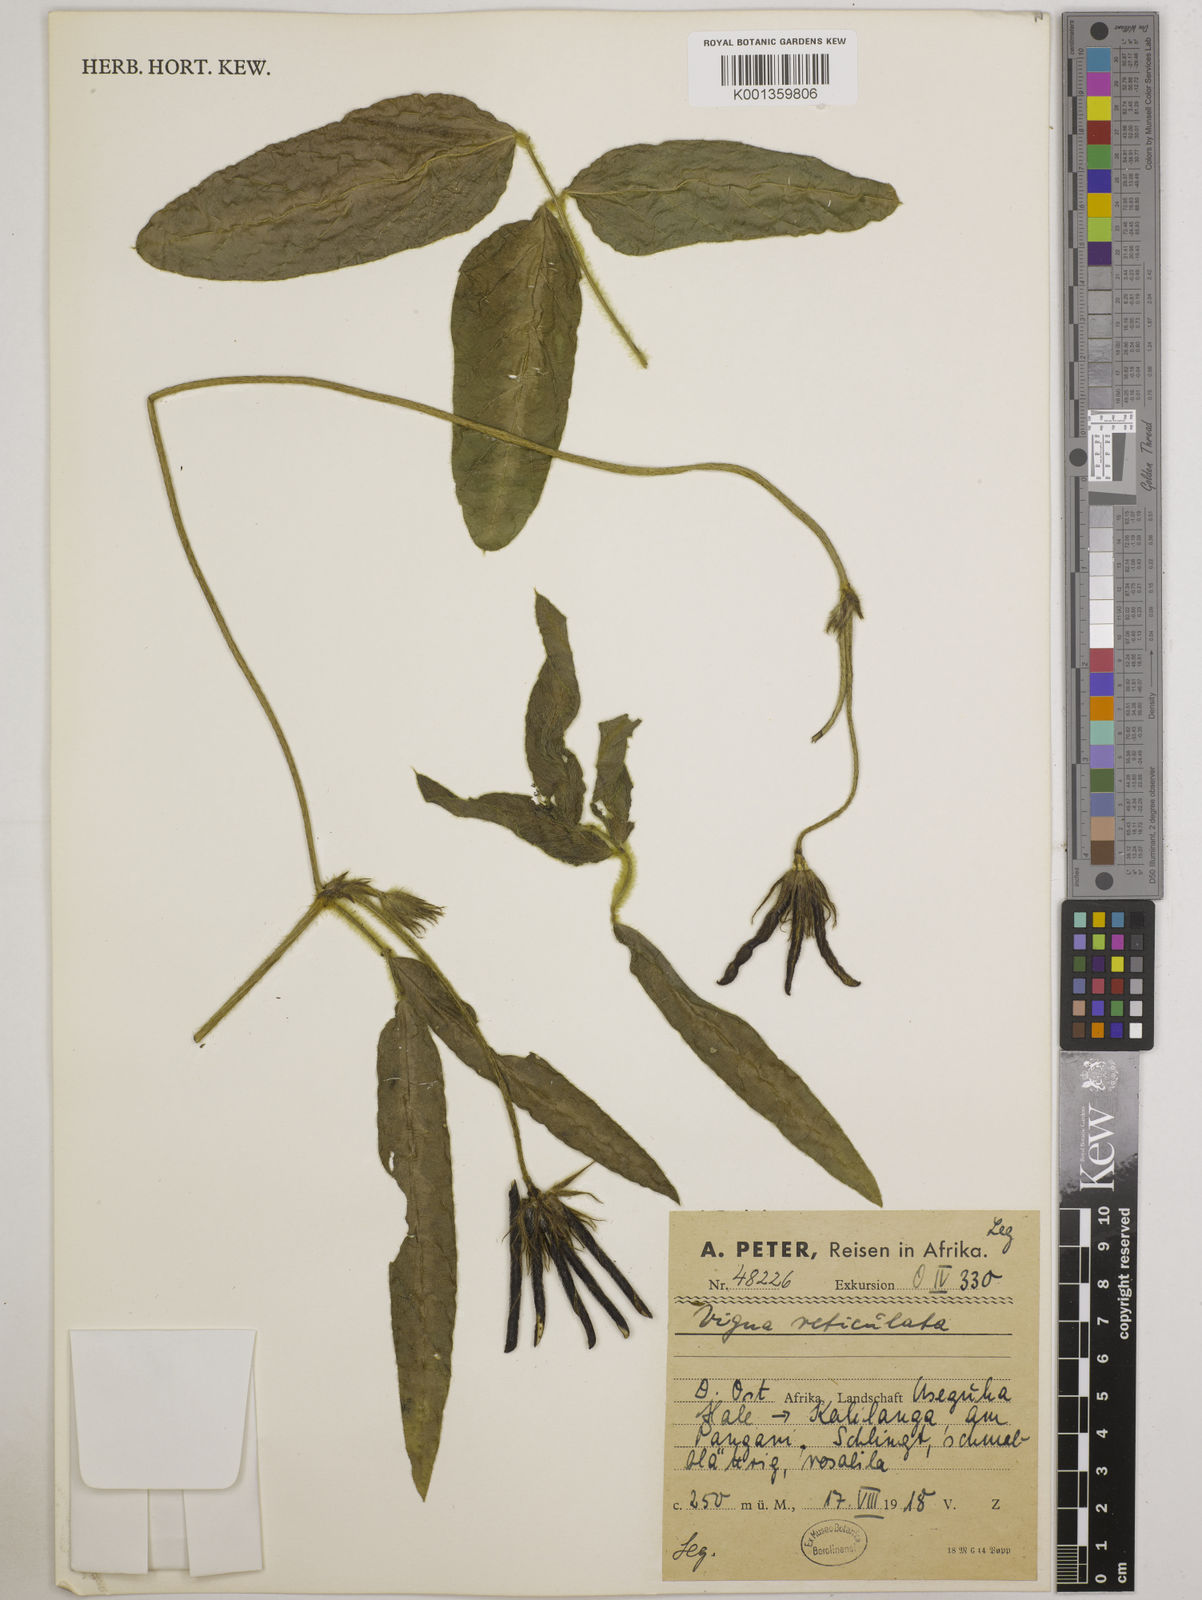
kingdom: Plantae
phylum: Tracheophyta
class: Magnoliopsida
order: Fabales
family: Fabaceae
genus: Vigna
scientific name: Vigna reticulata
